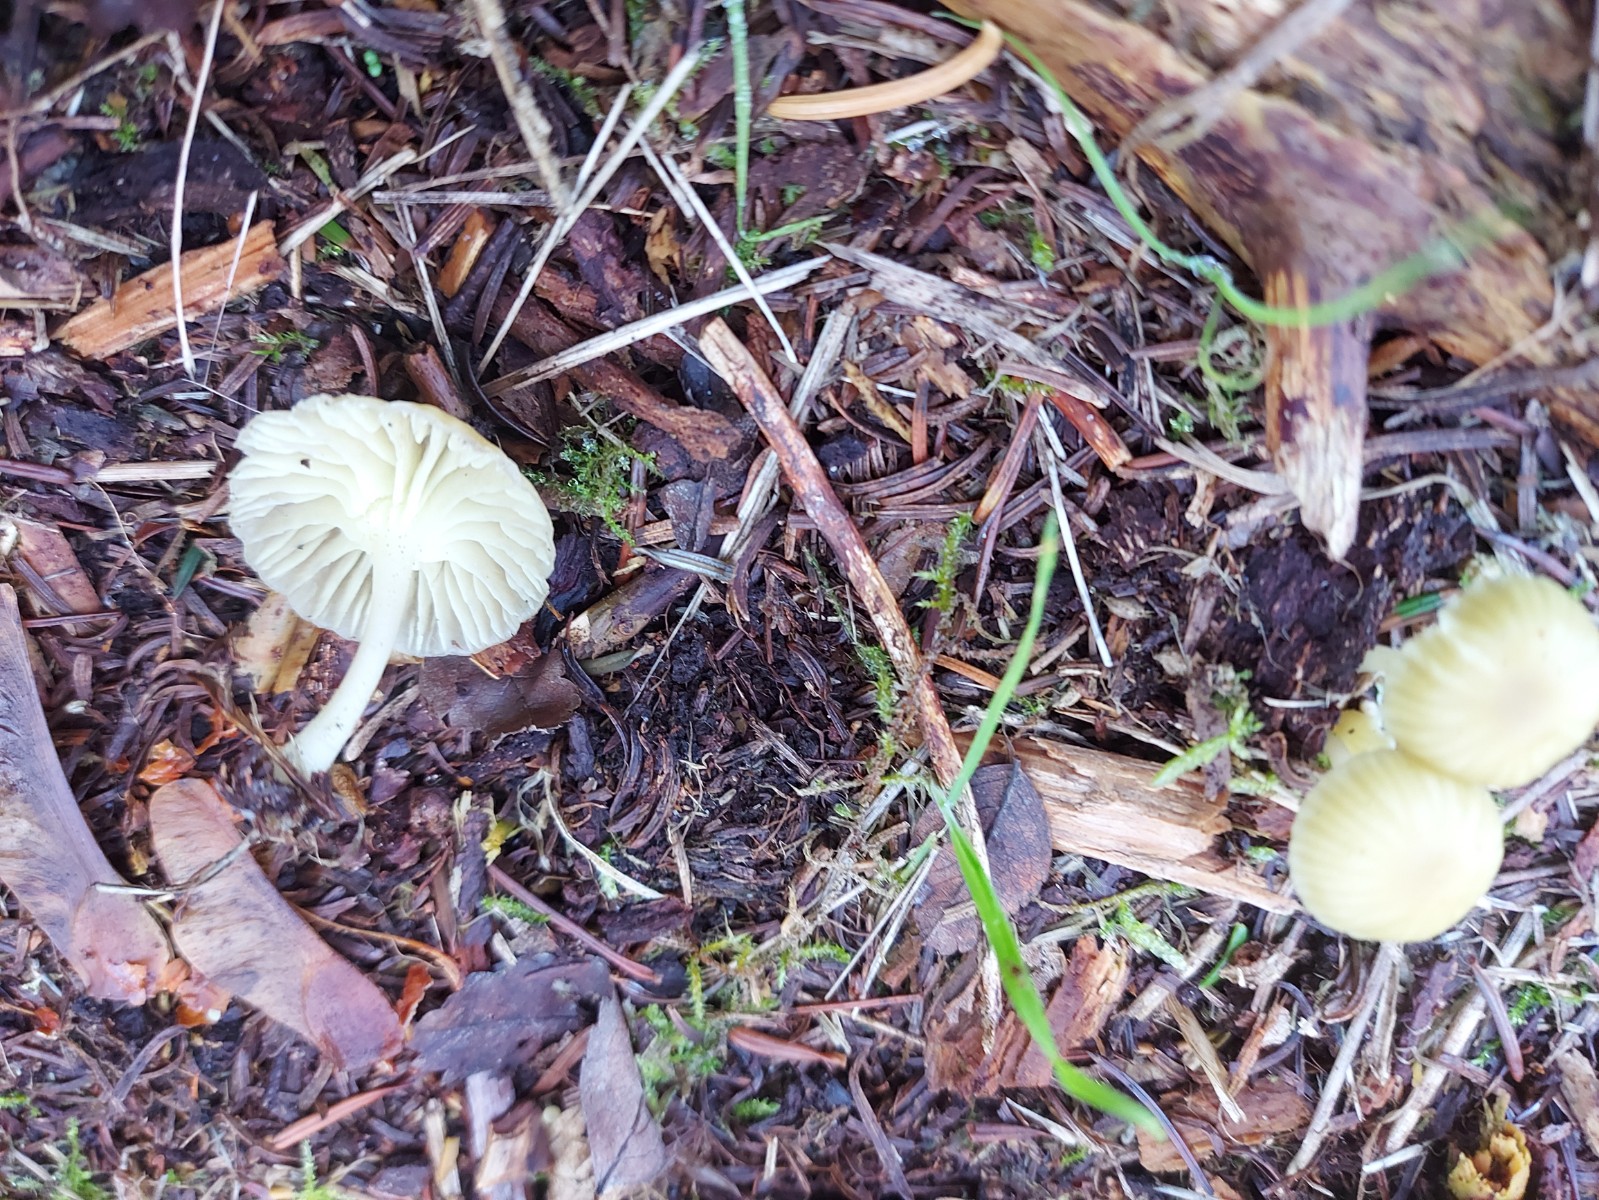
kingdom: Fungi
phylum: Basidiomycota
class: Agaricomycetes
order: Agaricales
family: Hygrophoraceae
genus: Chrysomphalina
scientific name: Chrysomphalina grossula
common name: stød-gyldenblad
